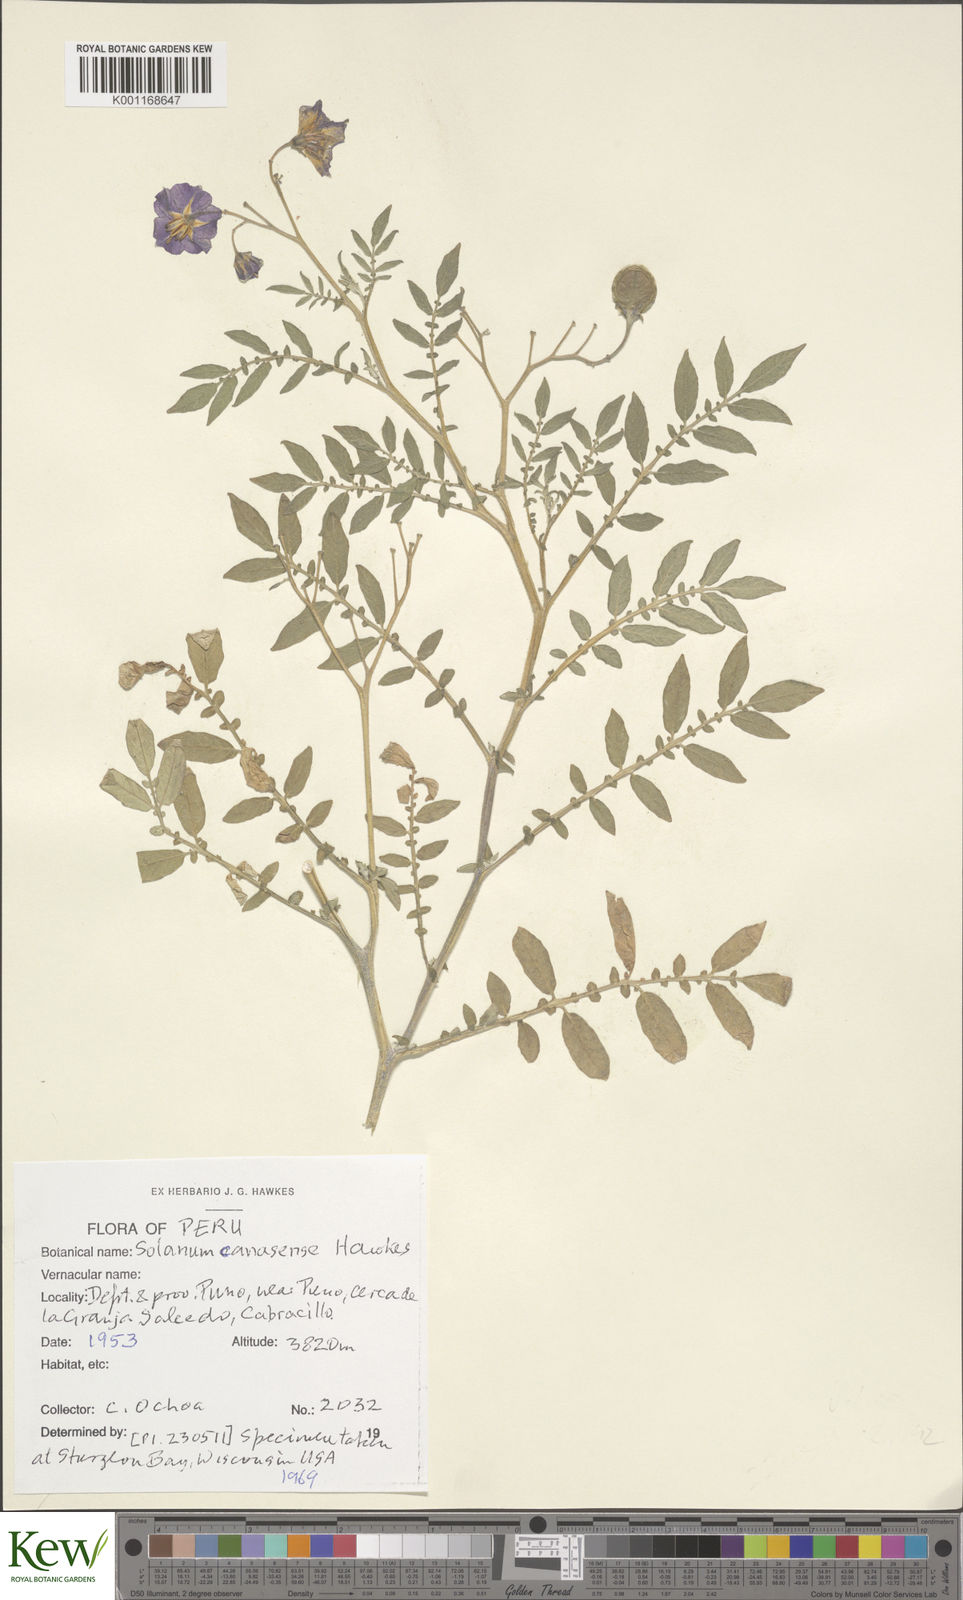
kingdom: Plantae
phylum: Tracheophyta
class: Magnoliopsida
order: Solanales
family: Solanaceae
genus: Solanum
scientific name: Solanum candolleanum
